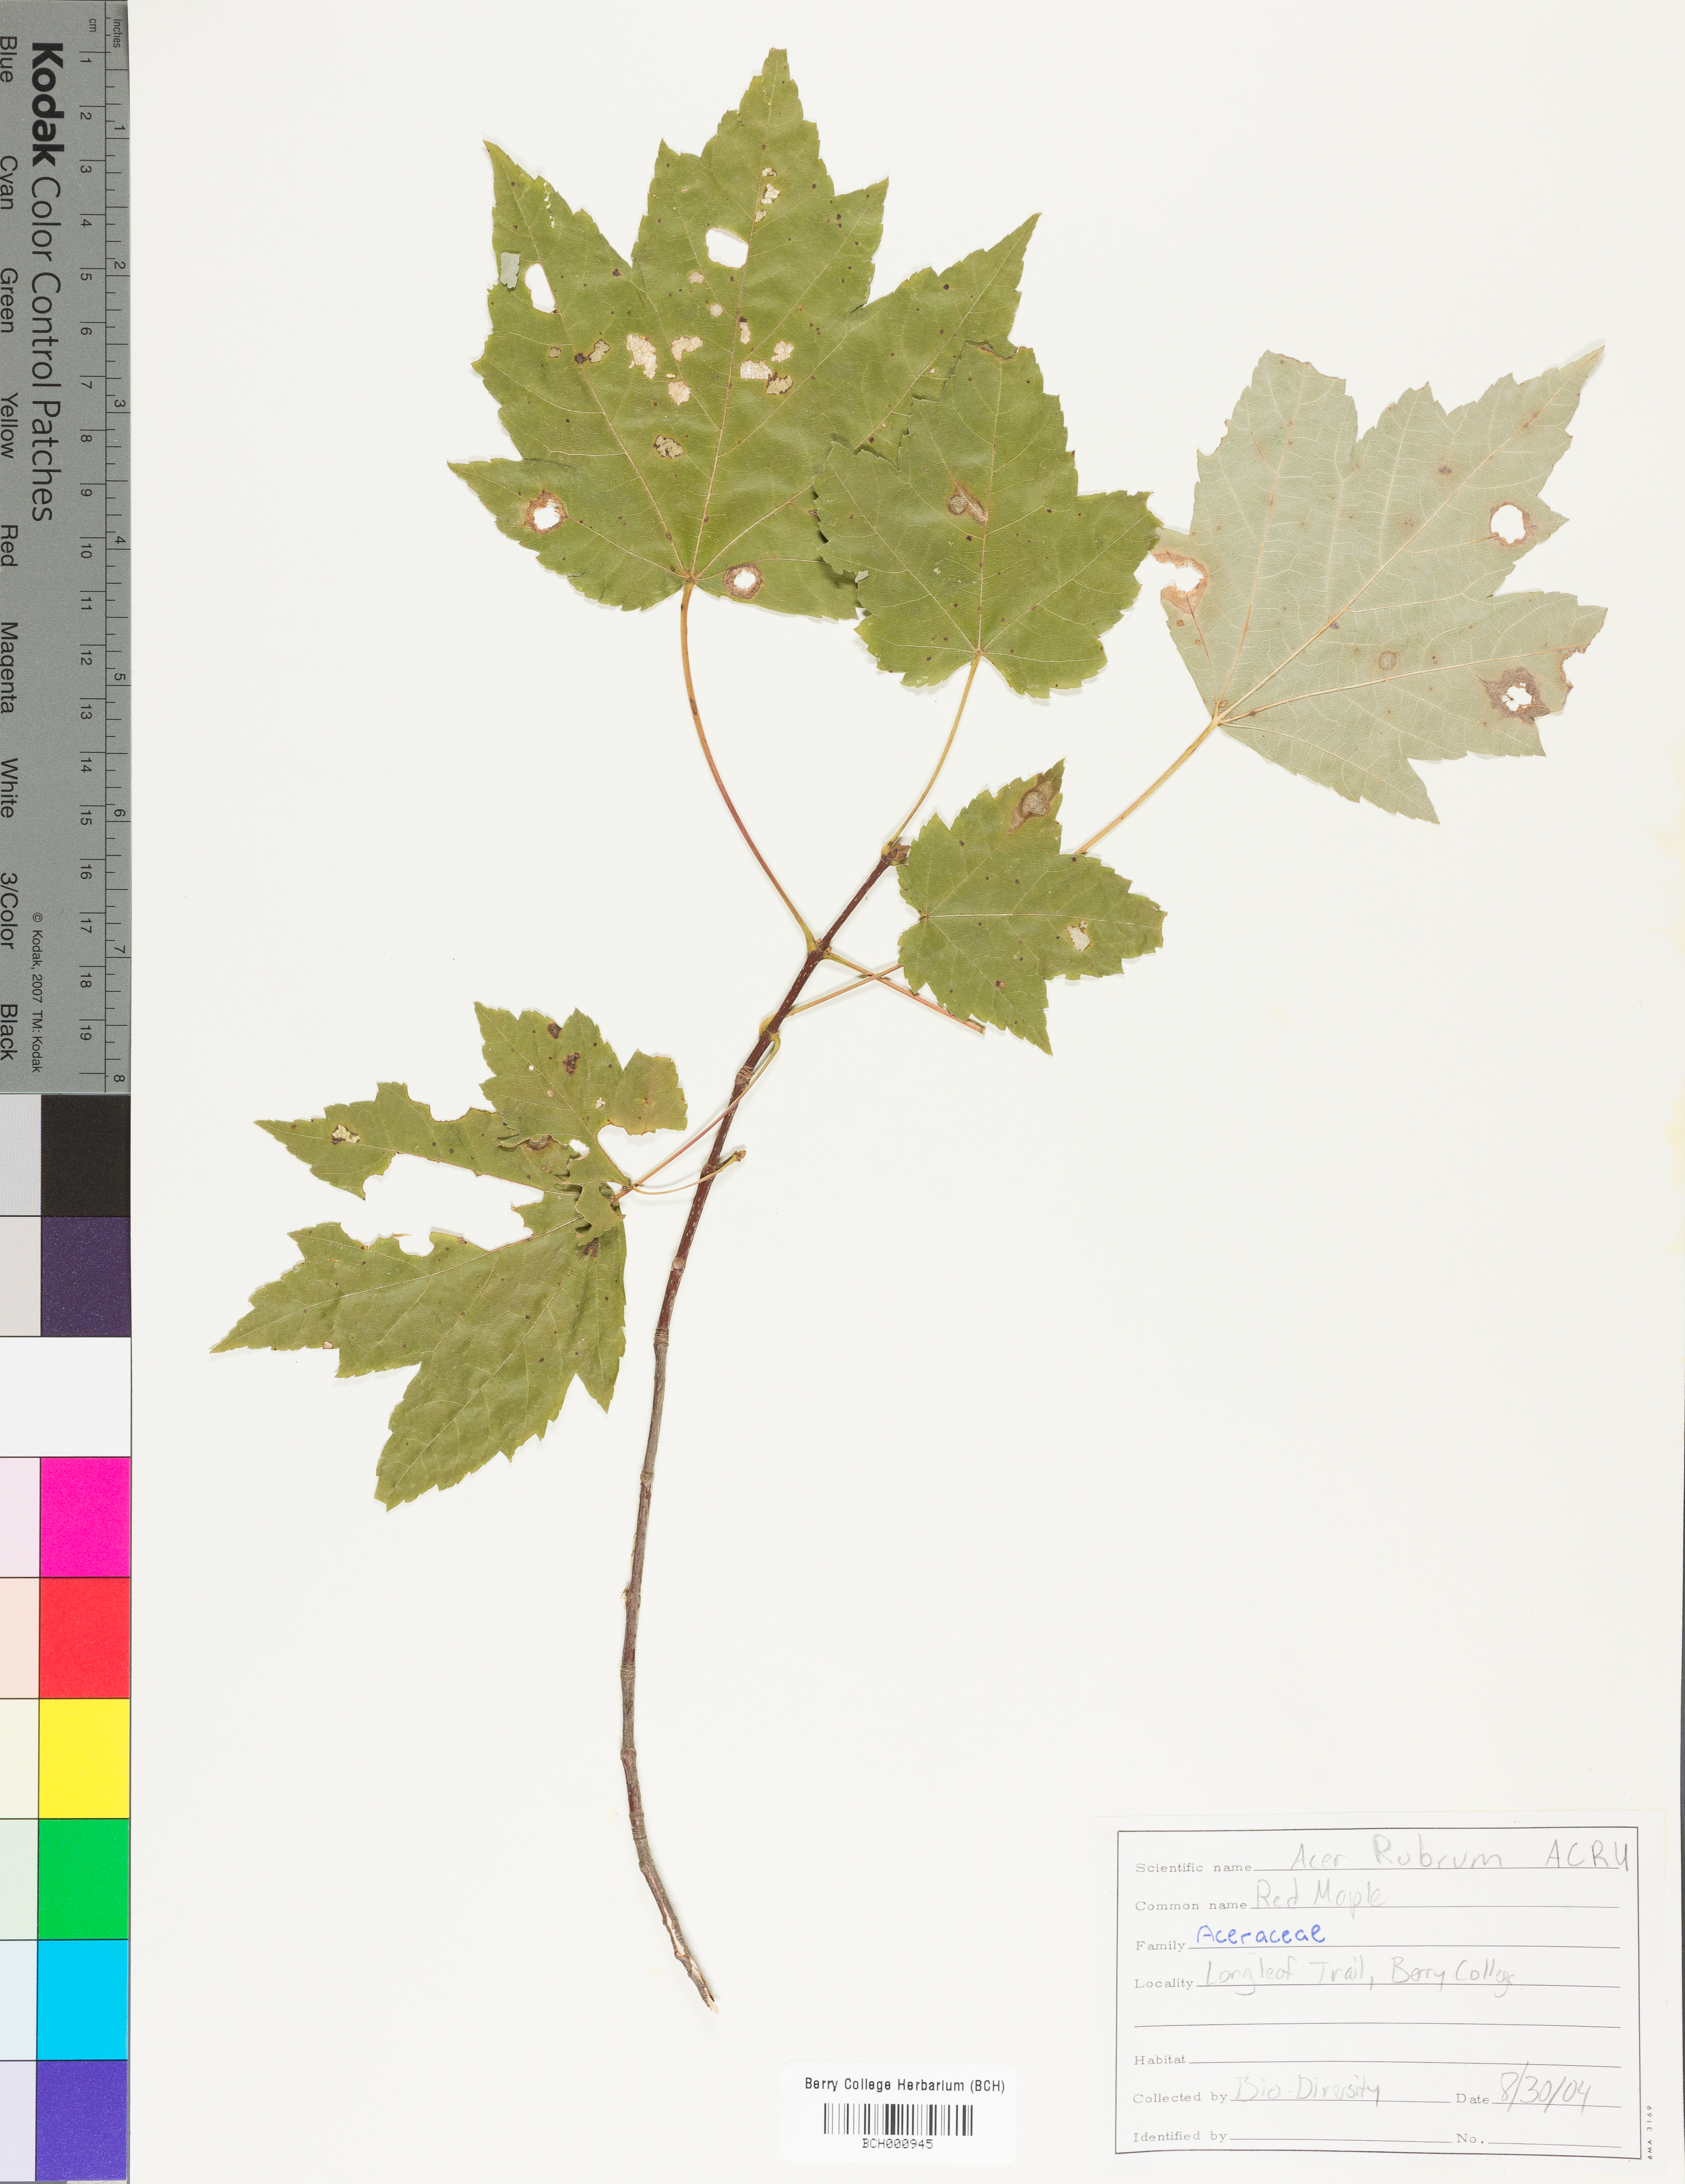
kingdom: Plantae
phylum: Tracheophyta
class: Magnoliopsida
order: Sapindales
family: Sapindaceae
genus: Acer
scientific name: Acer rubrum
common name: Red maple
